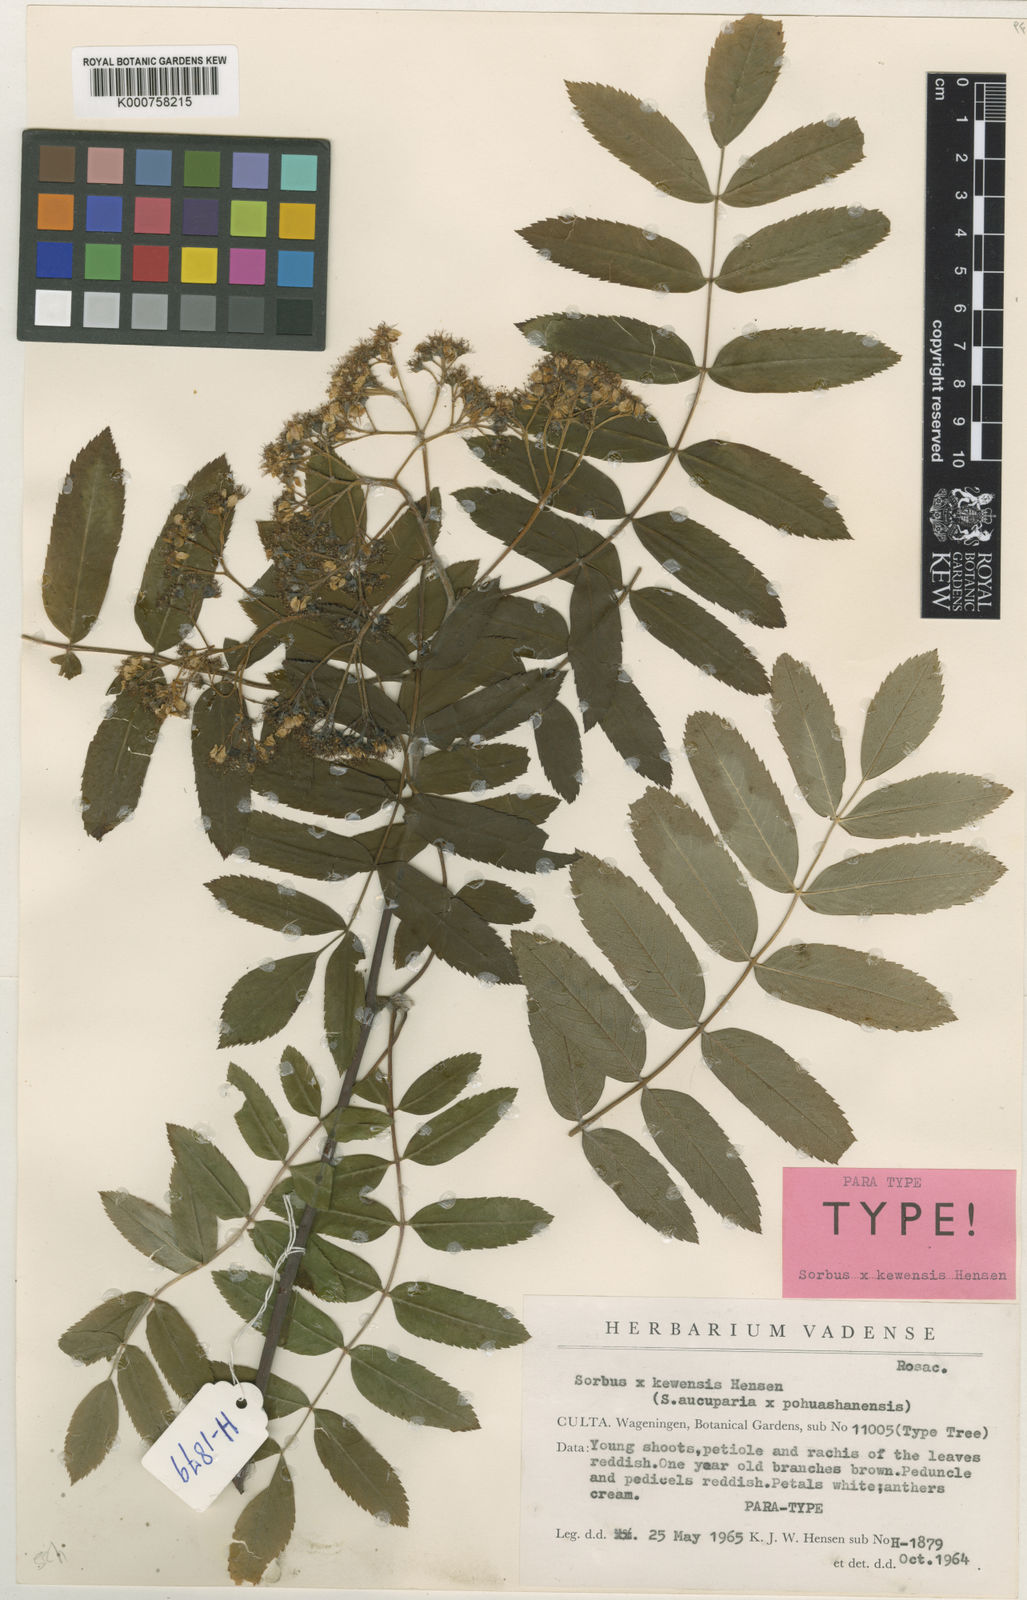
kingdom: Plantae
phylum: Tracheophyta
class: Magnoliopsida
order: Rosales
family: Rosaceae
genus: Sorbus
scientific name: Sorbus aucuparia
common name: Rowan
